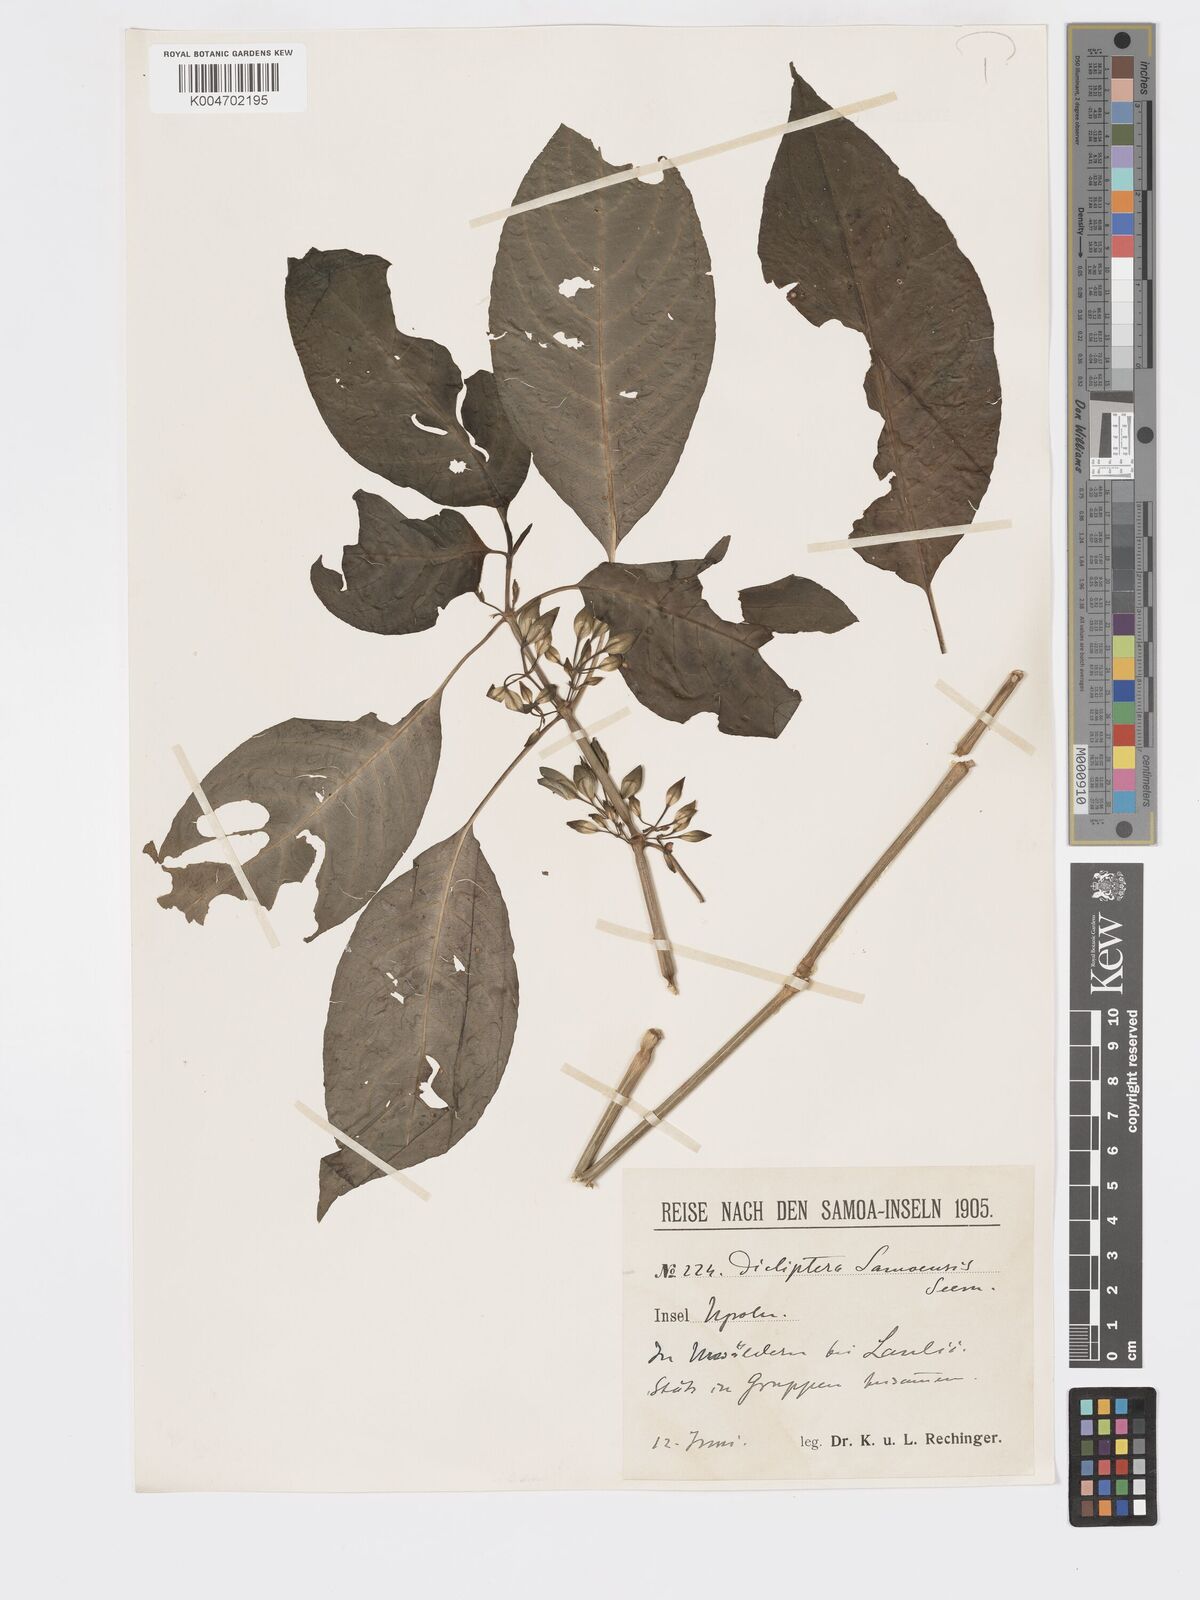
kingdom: Plantae
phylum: Tracheophyta
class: Magnoliopsida
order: Lamiales
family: Acanthaceae
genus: Dicliptera
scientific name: Dicliptera samoensis
